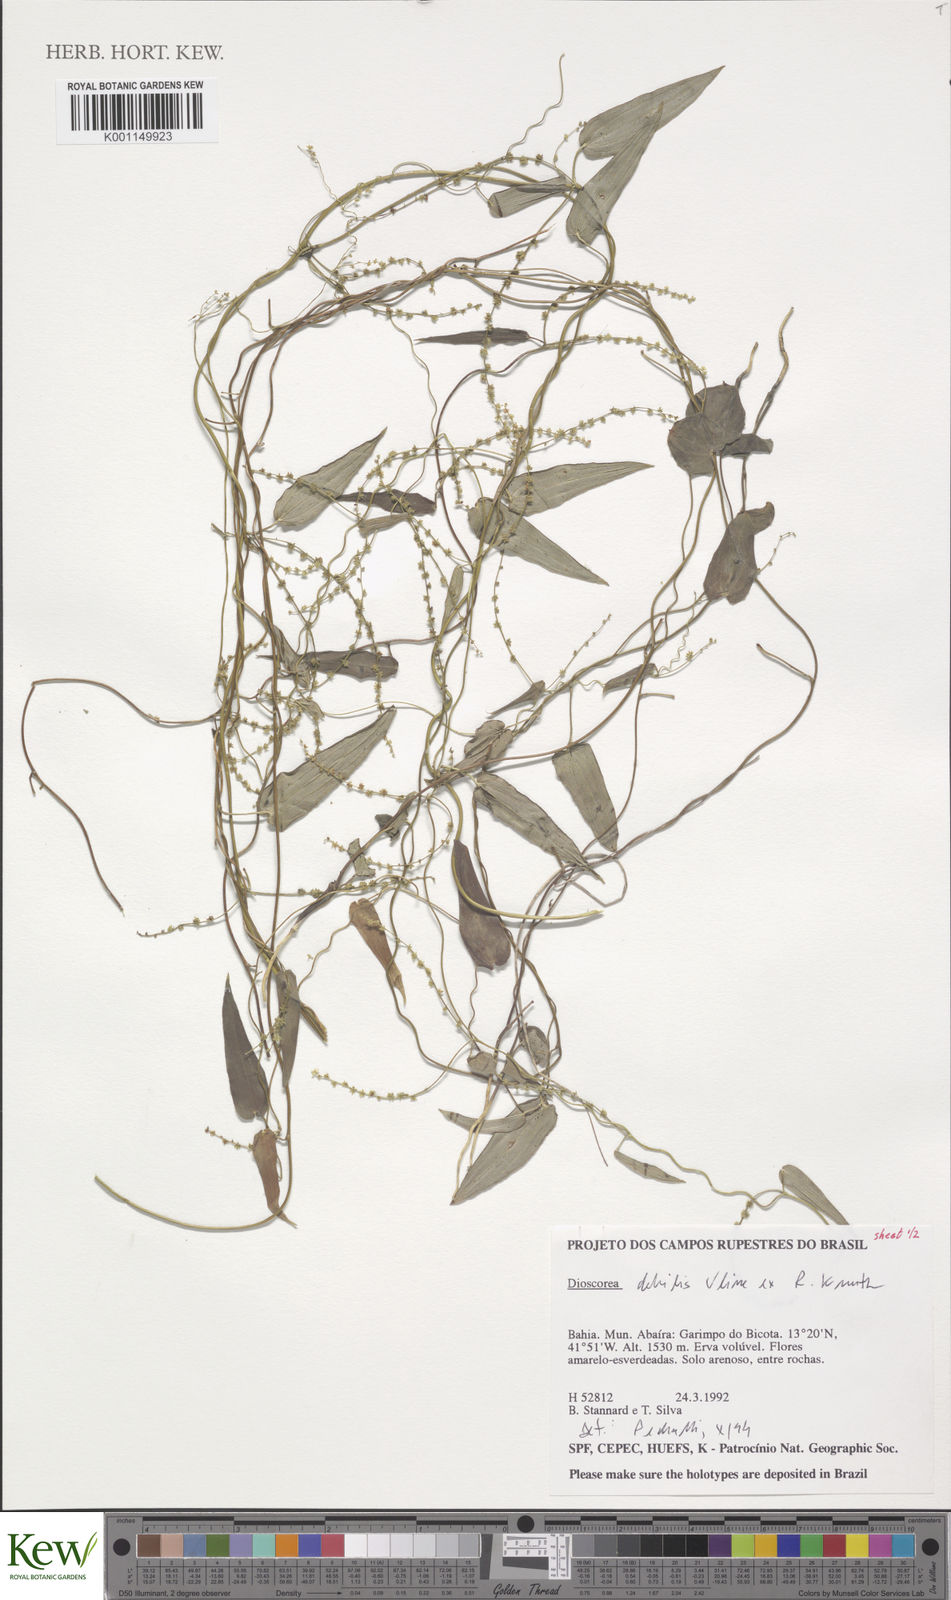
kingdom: Plantae
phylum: Tracheophyta
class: Liliopsida
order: Dioscoreales
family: Dioscoreaceae
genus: Dioscorea
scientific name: Dioscorea debilis
